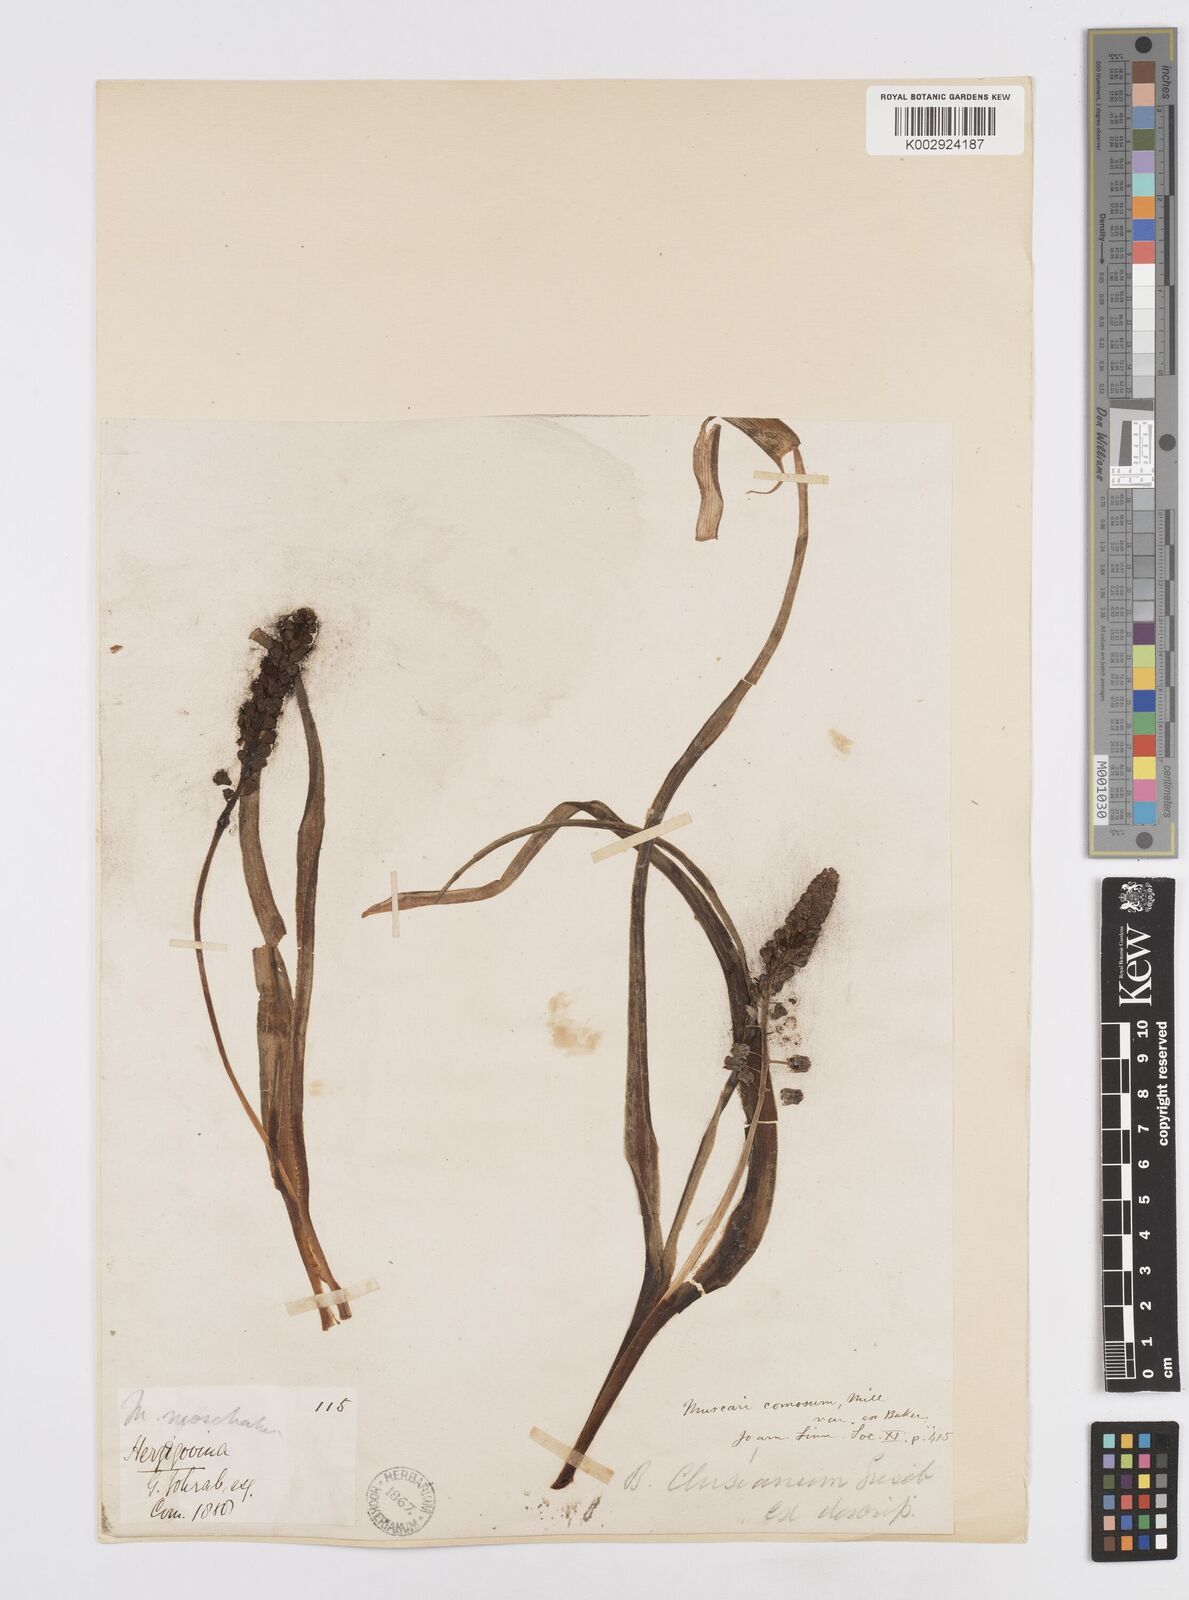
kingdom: Plantae
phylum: Tracheophyta
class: Liliopsida
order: Asparagales
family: Asparagaceae
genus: Bellevalia
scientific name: Bellevalia
